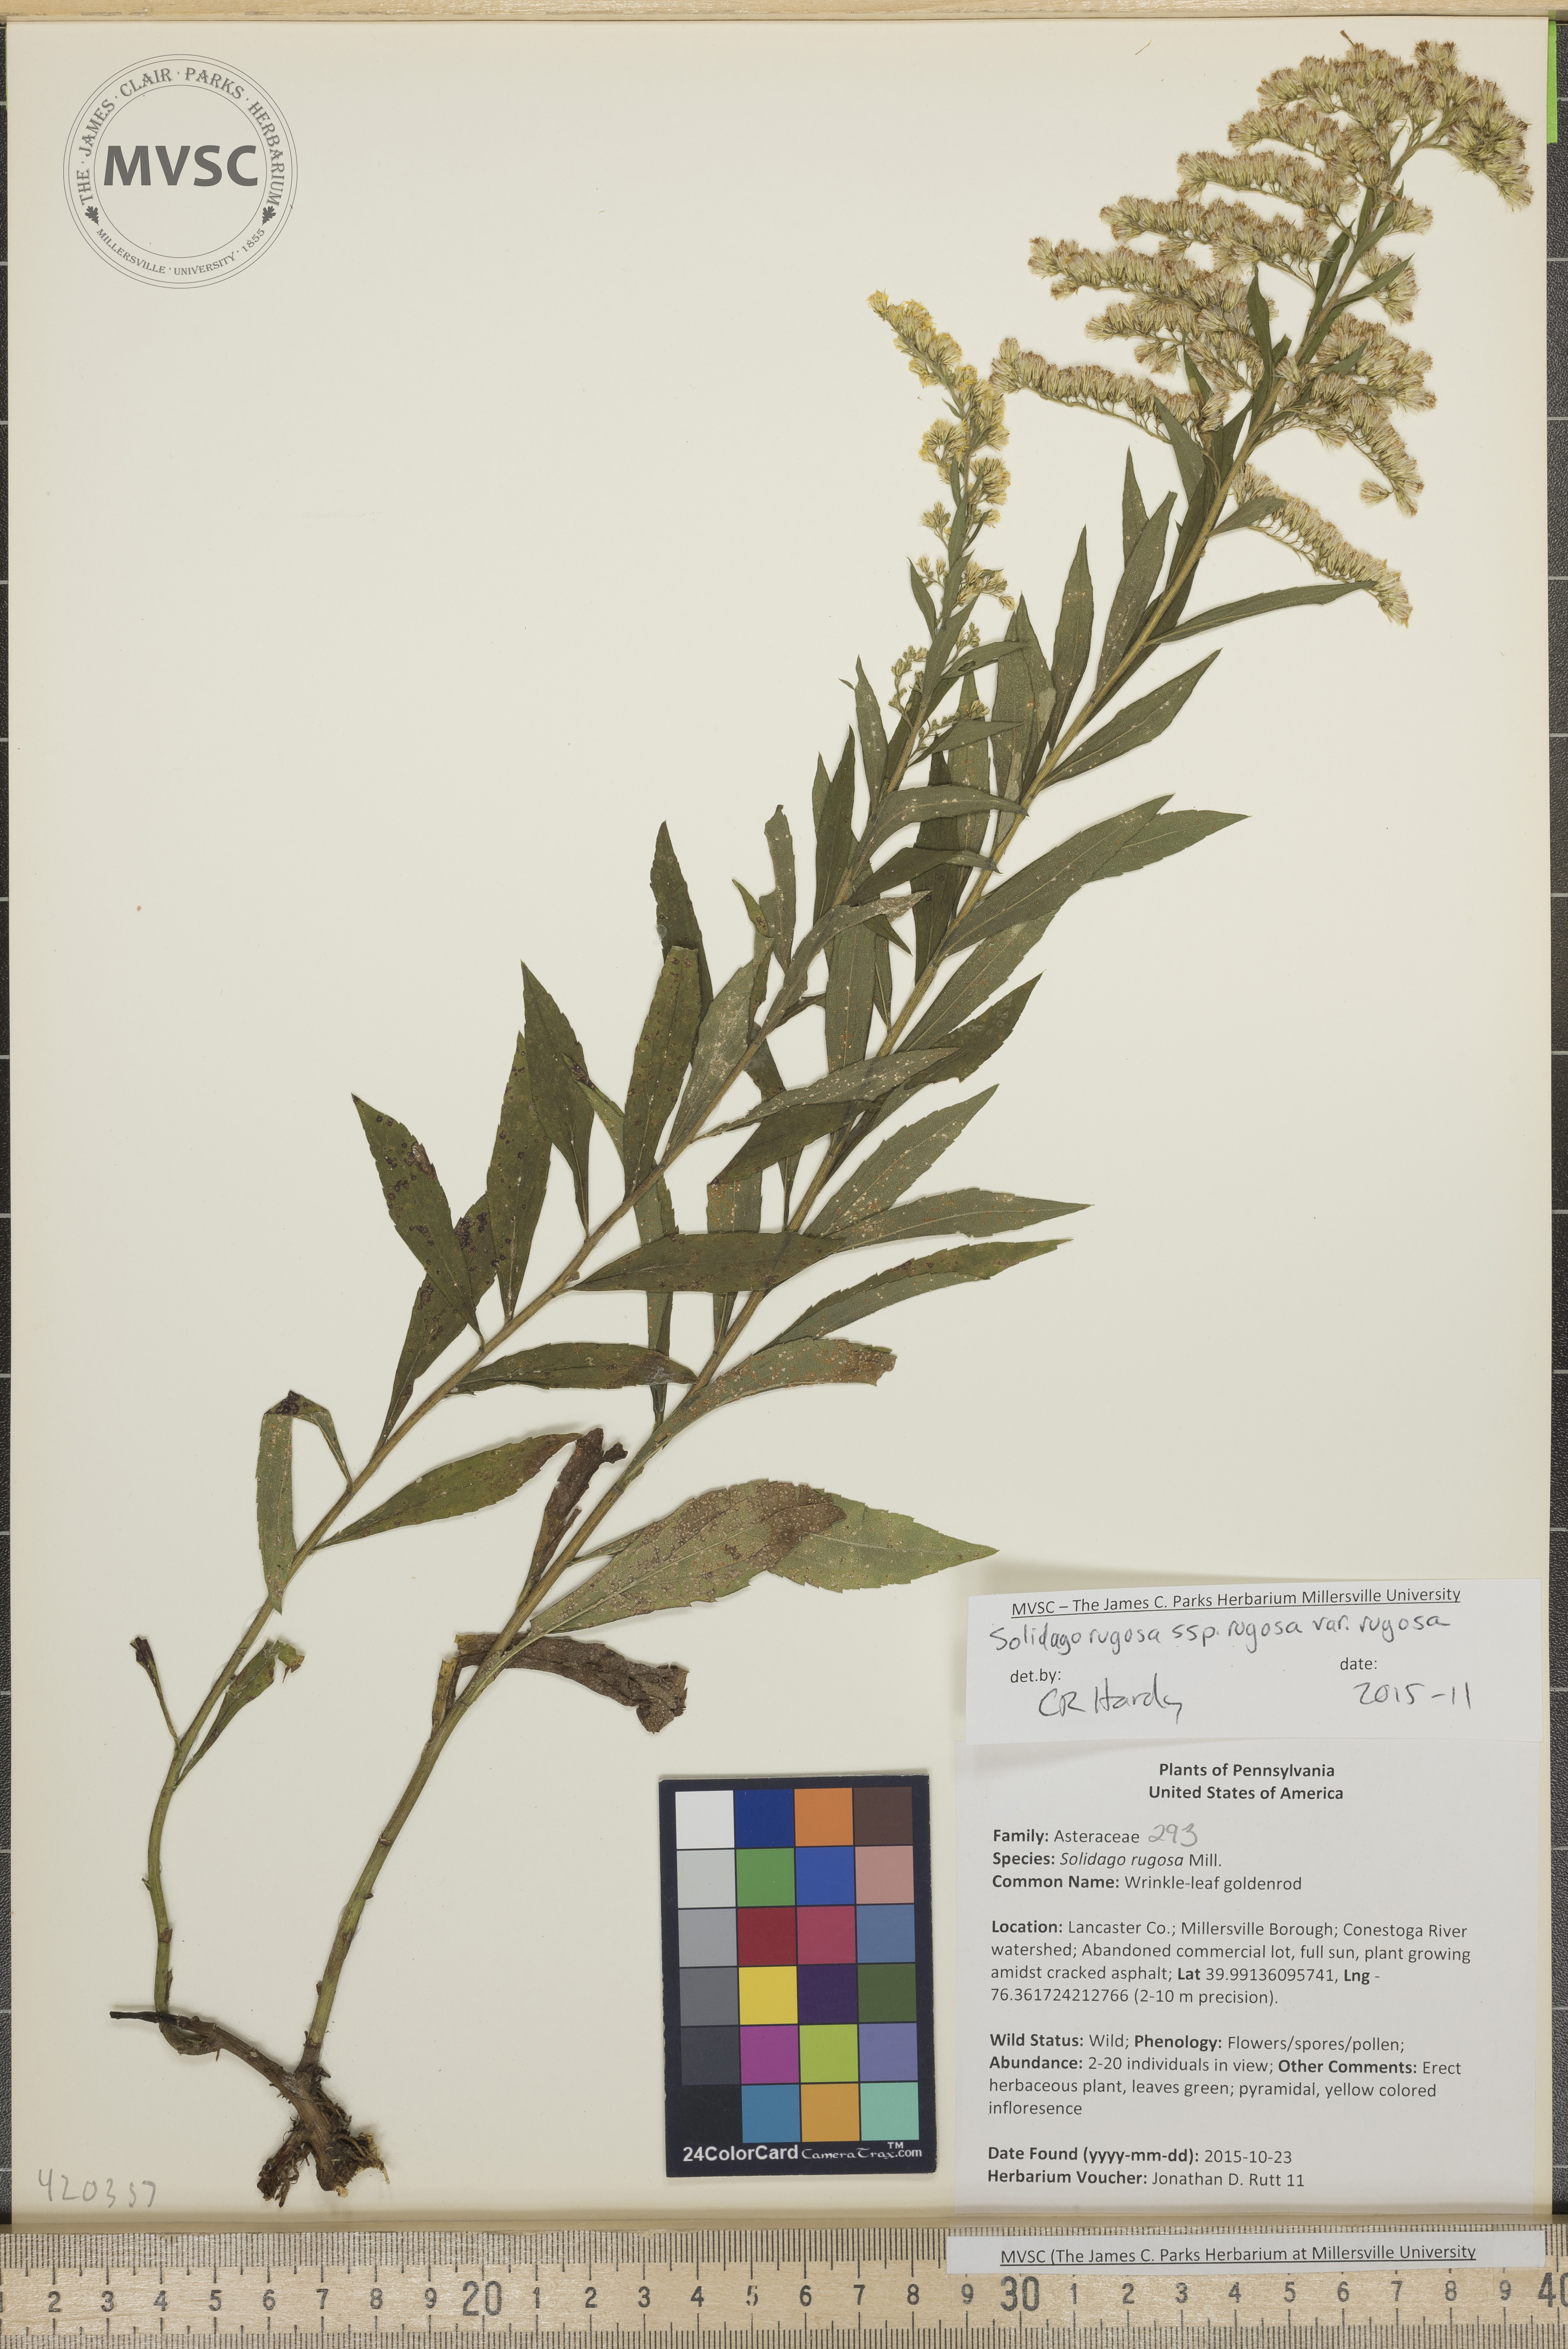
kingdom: Plantae
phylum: Tracheophyta
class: Magnoliopsida
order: Asterales
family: Asteraceae
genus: Solidago
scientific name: Solidago rugosa
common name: Wrinkle-leaf goldenrod
